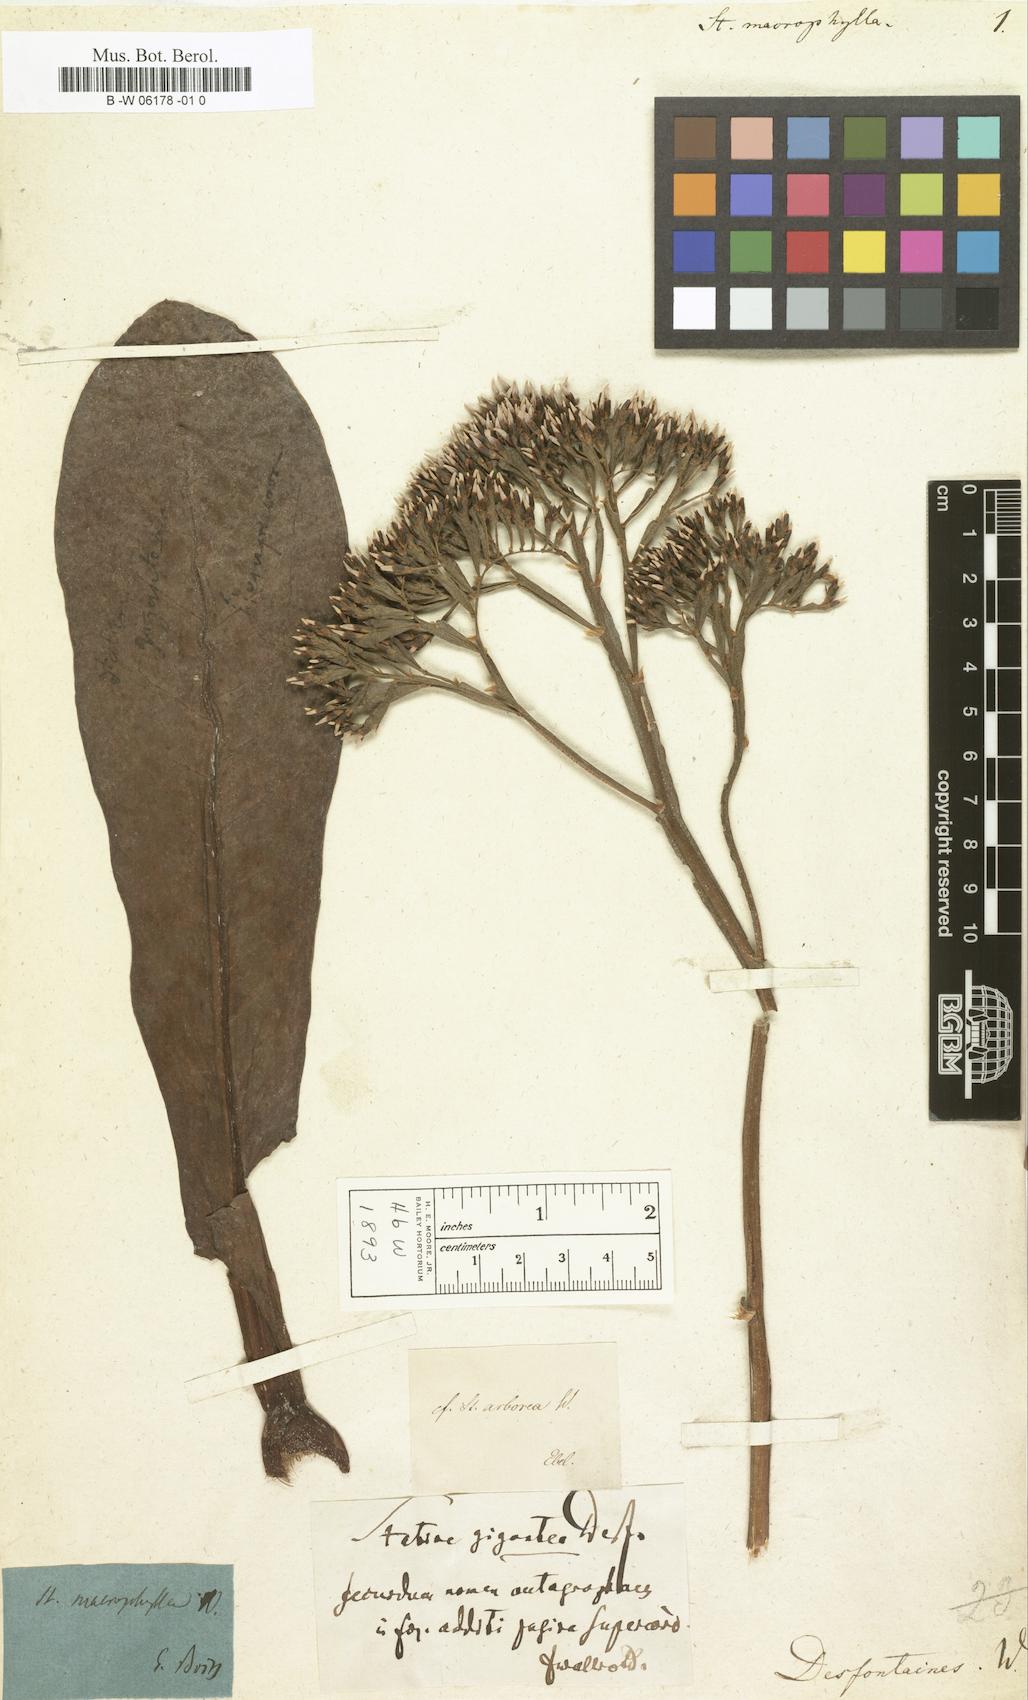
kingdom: Plantae
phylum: Tracheophyta
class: Magnoliopsida
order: Caryophyllales
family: Plumbaginaceae
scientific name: Plumbaginaceae
